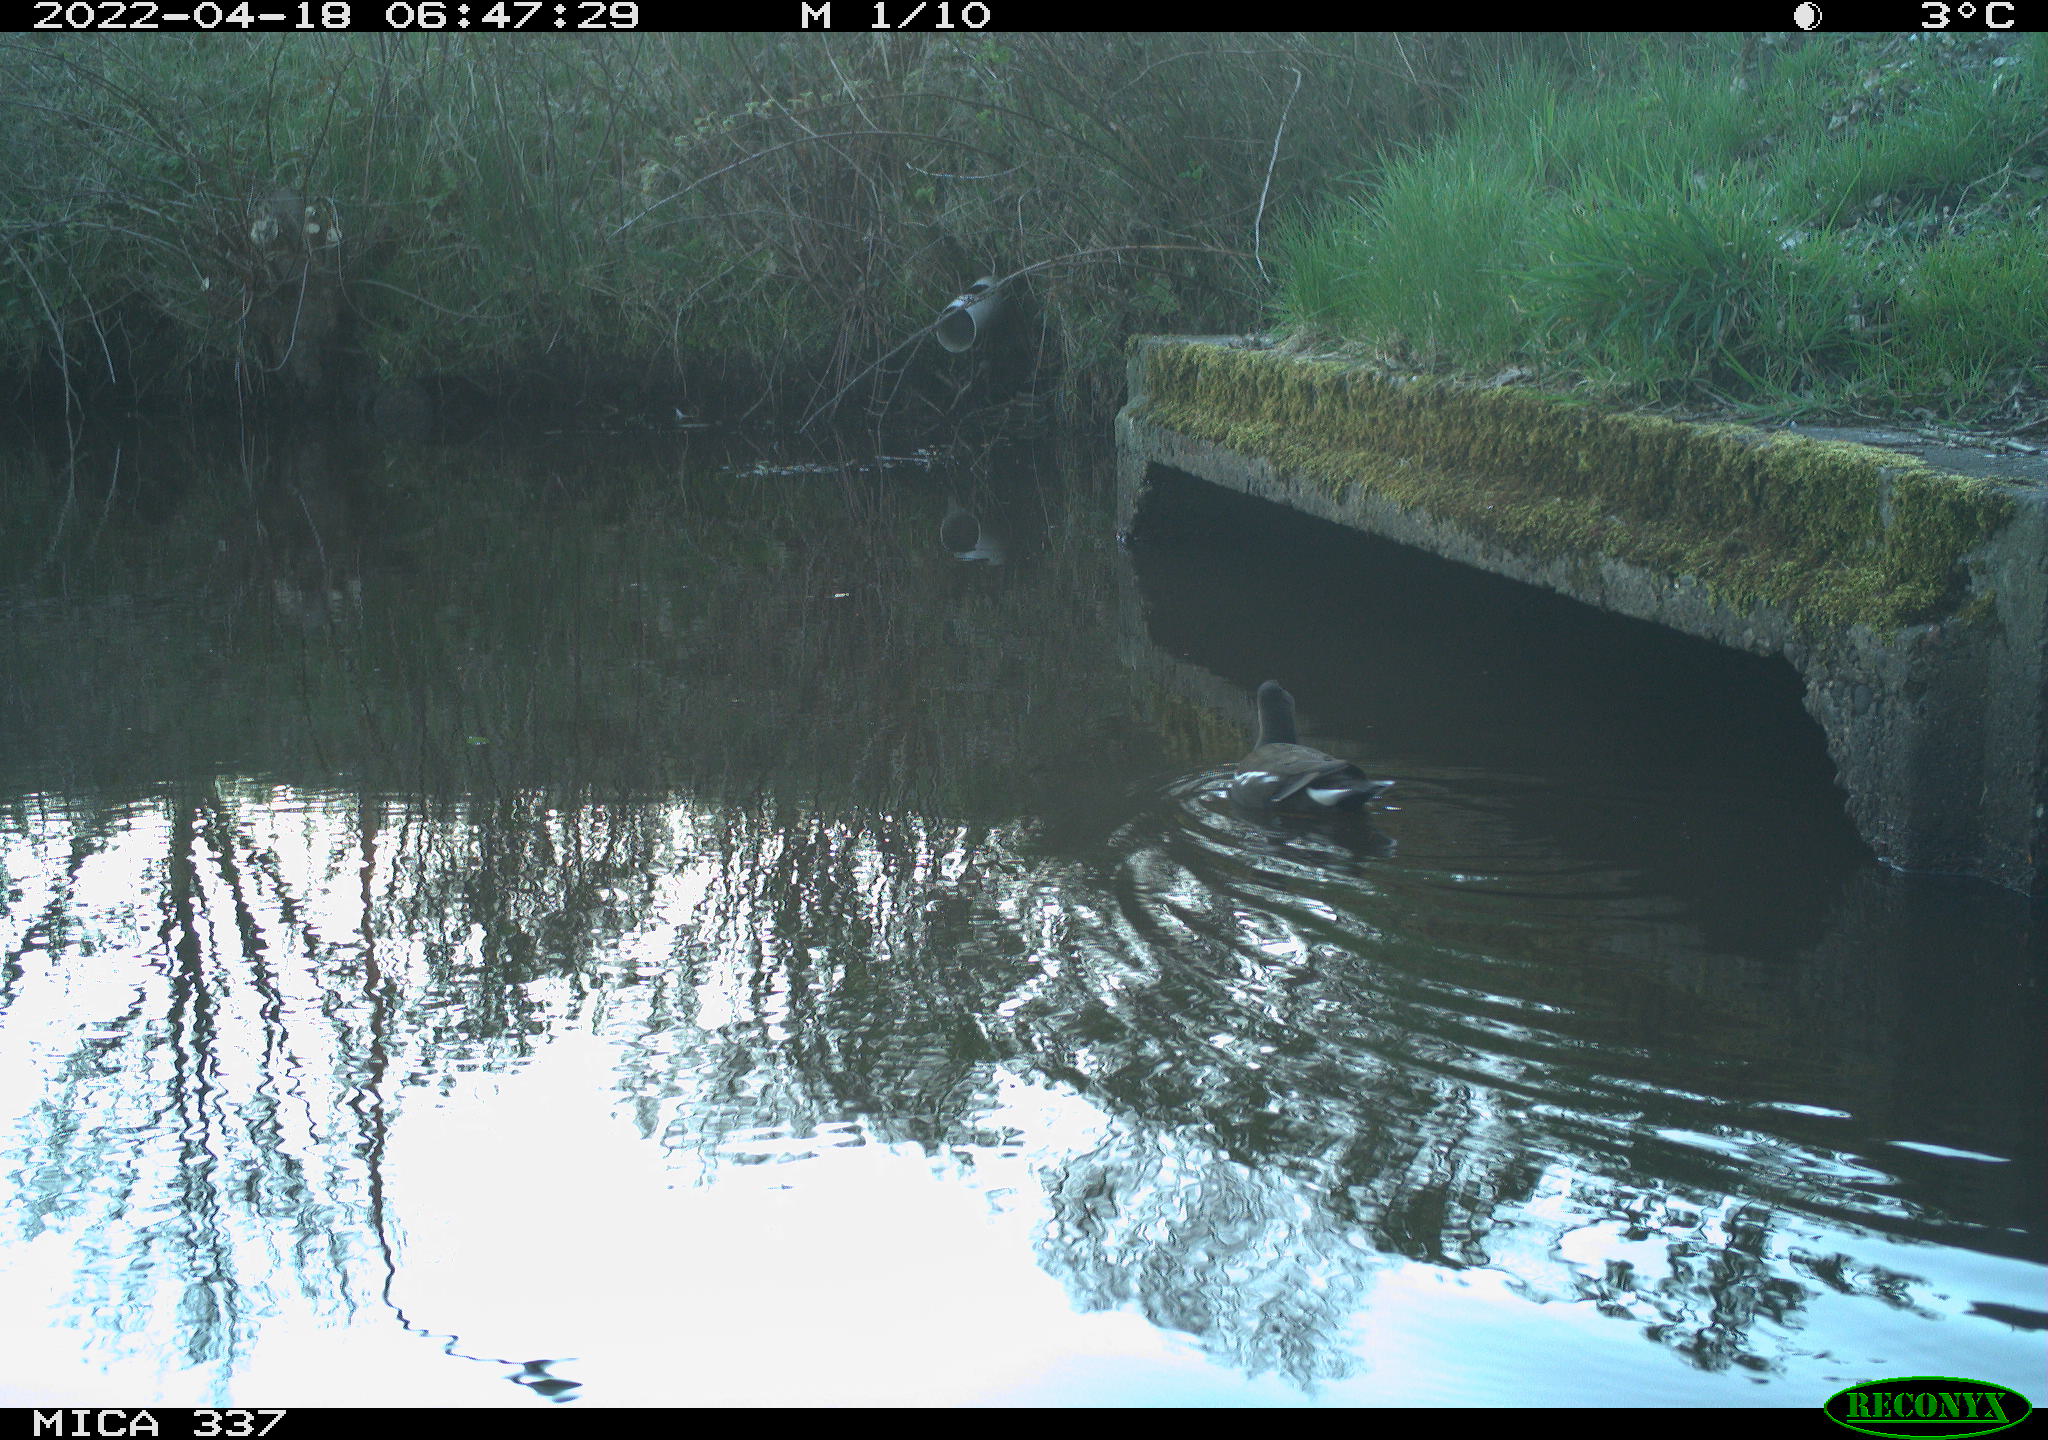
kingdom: Animalia
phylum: Chordata
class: Aves
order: Gruiformes
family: Rallidae
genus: Gallinula
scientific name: Gallinula chloropus
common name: Common moorhen
